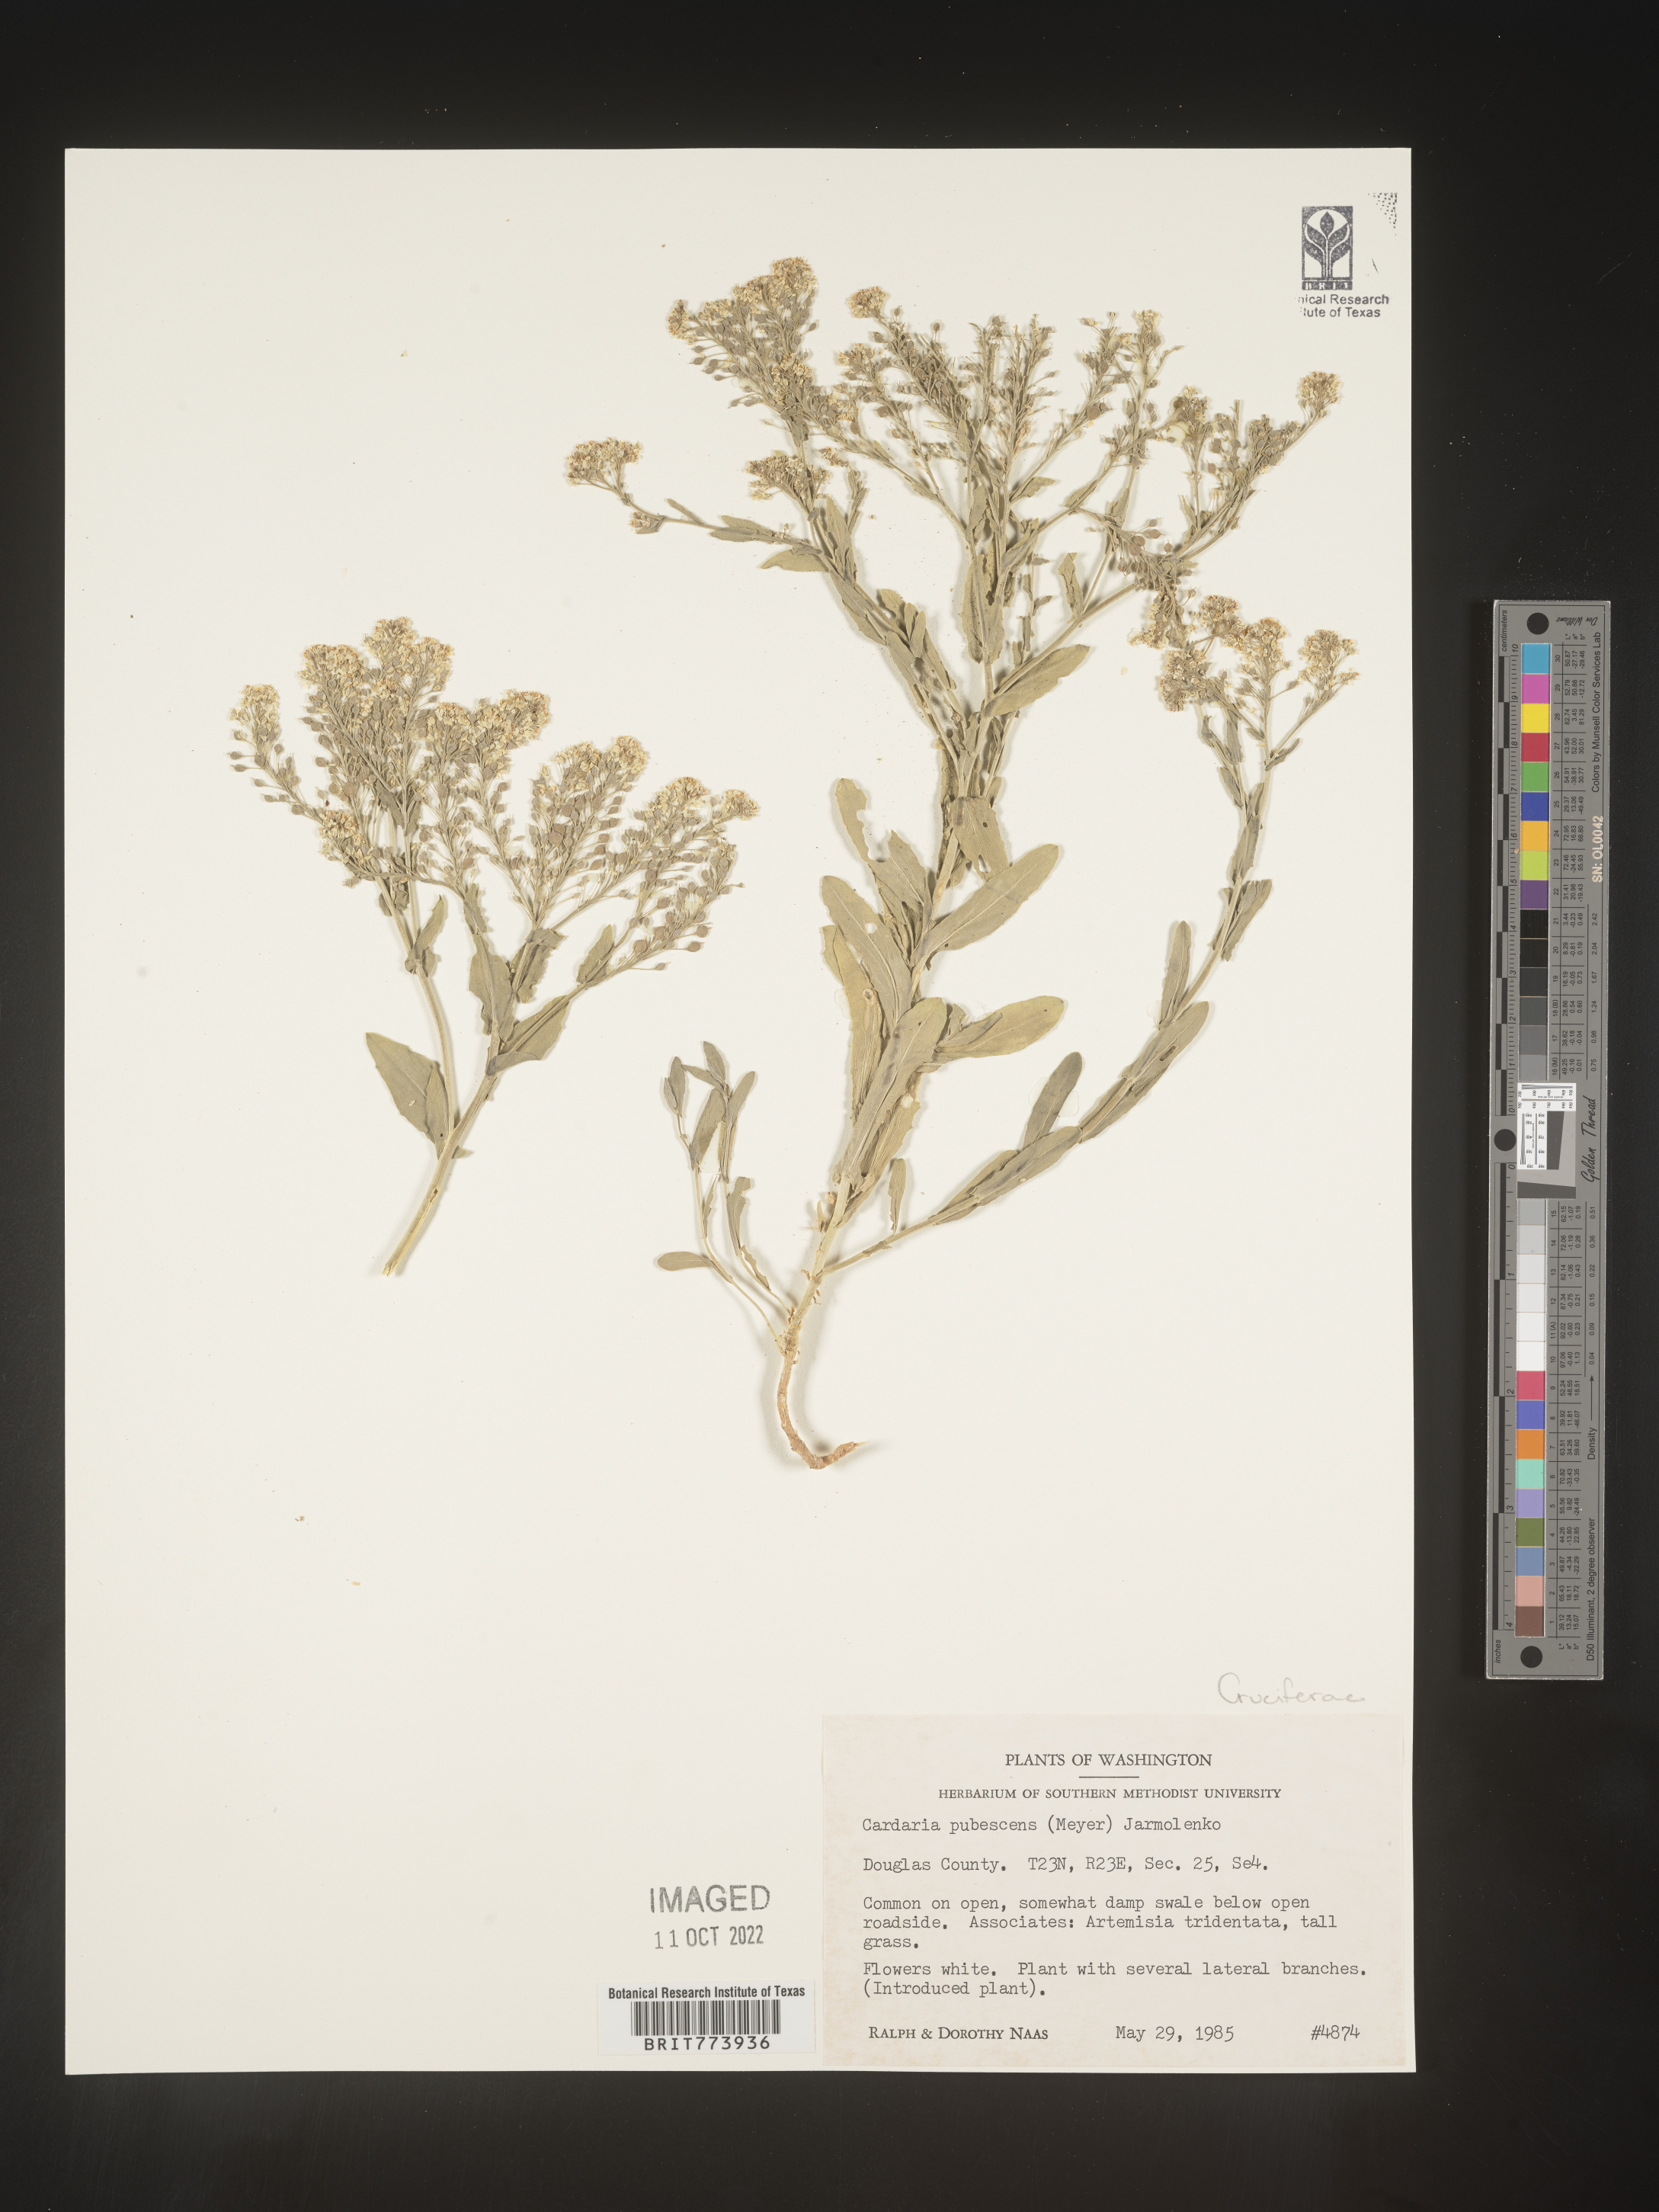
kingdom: Plantae
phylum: Tracheophyta
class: Magnoliopsida
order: Brassicales
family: Brassicaceae
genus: Lepidium
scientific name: Lepidium appelianum
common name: Hairy whitetop
